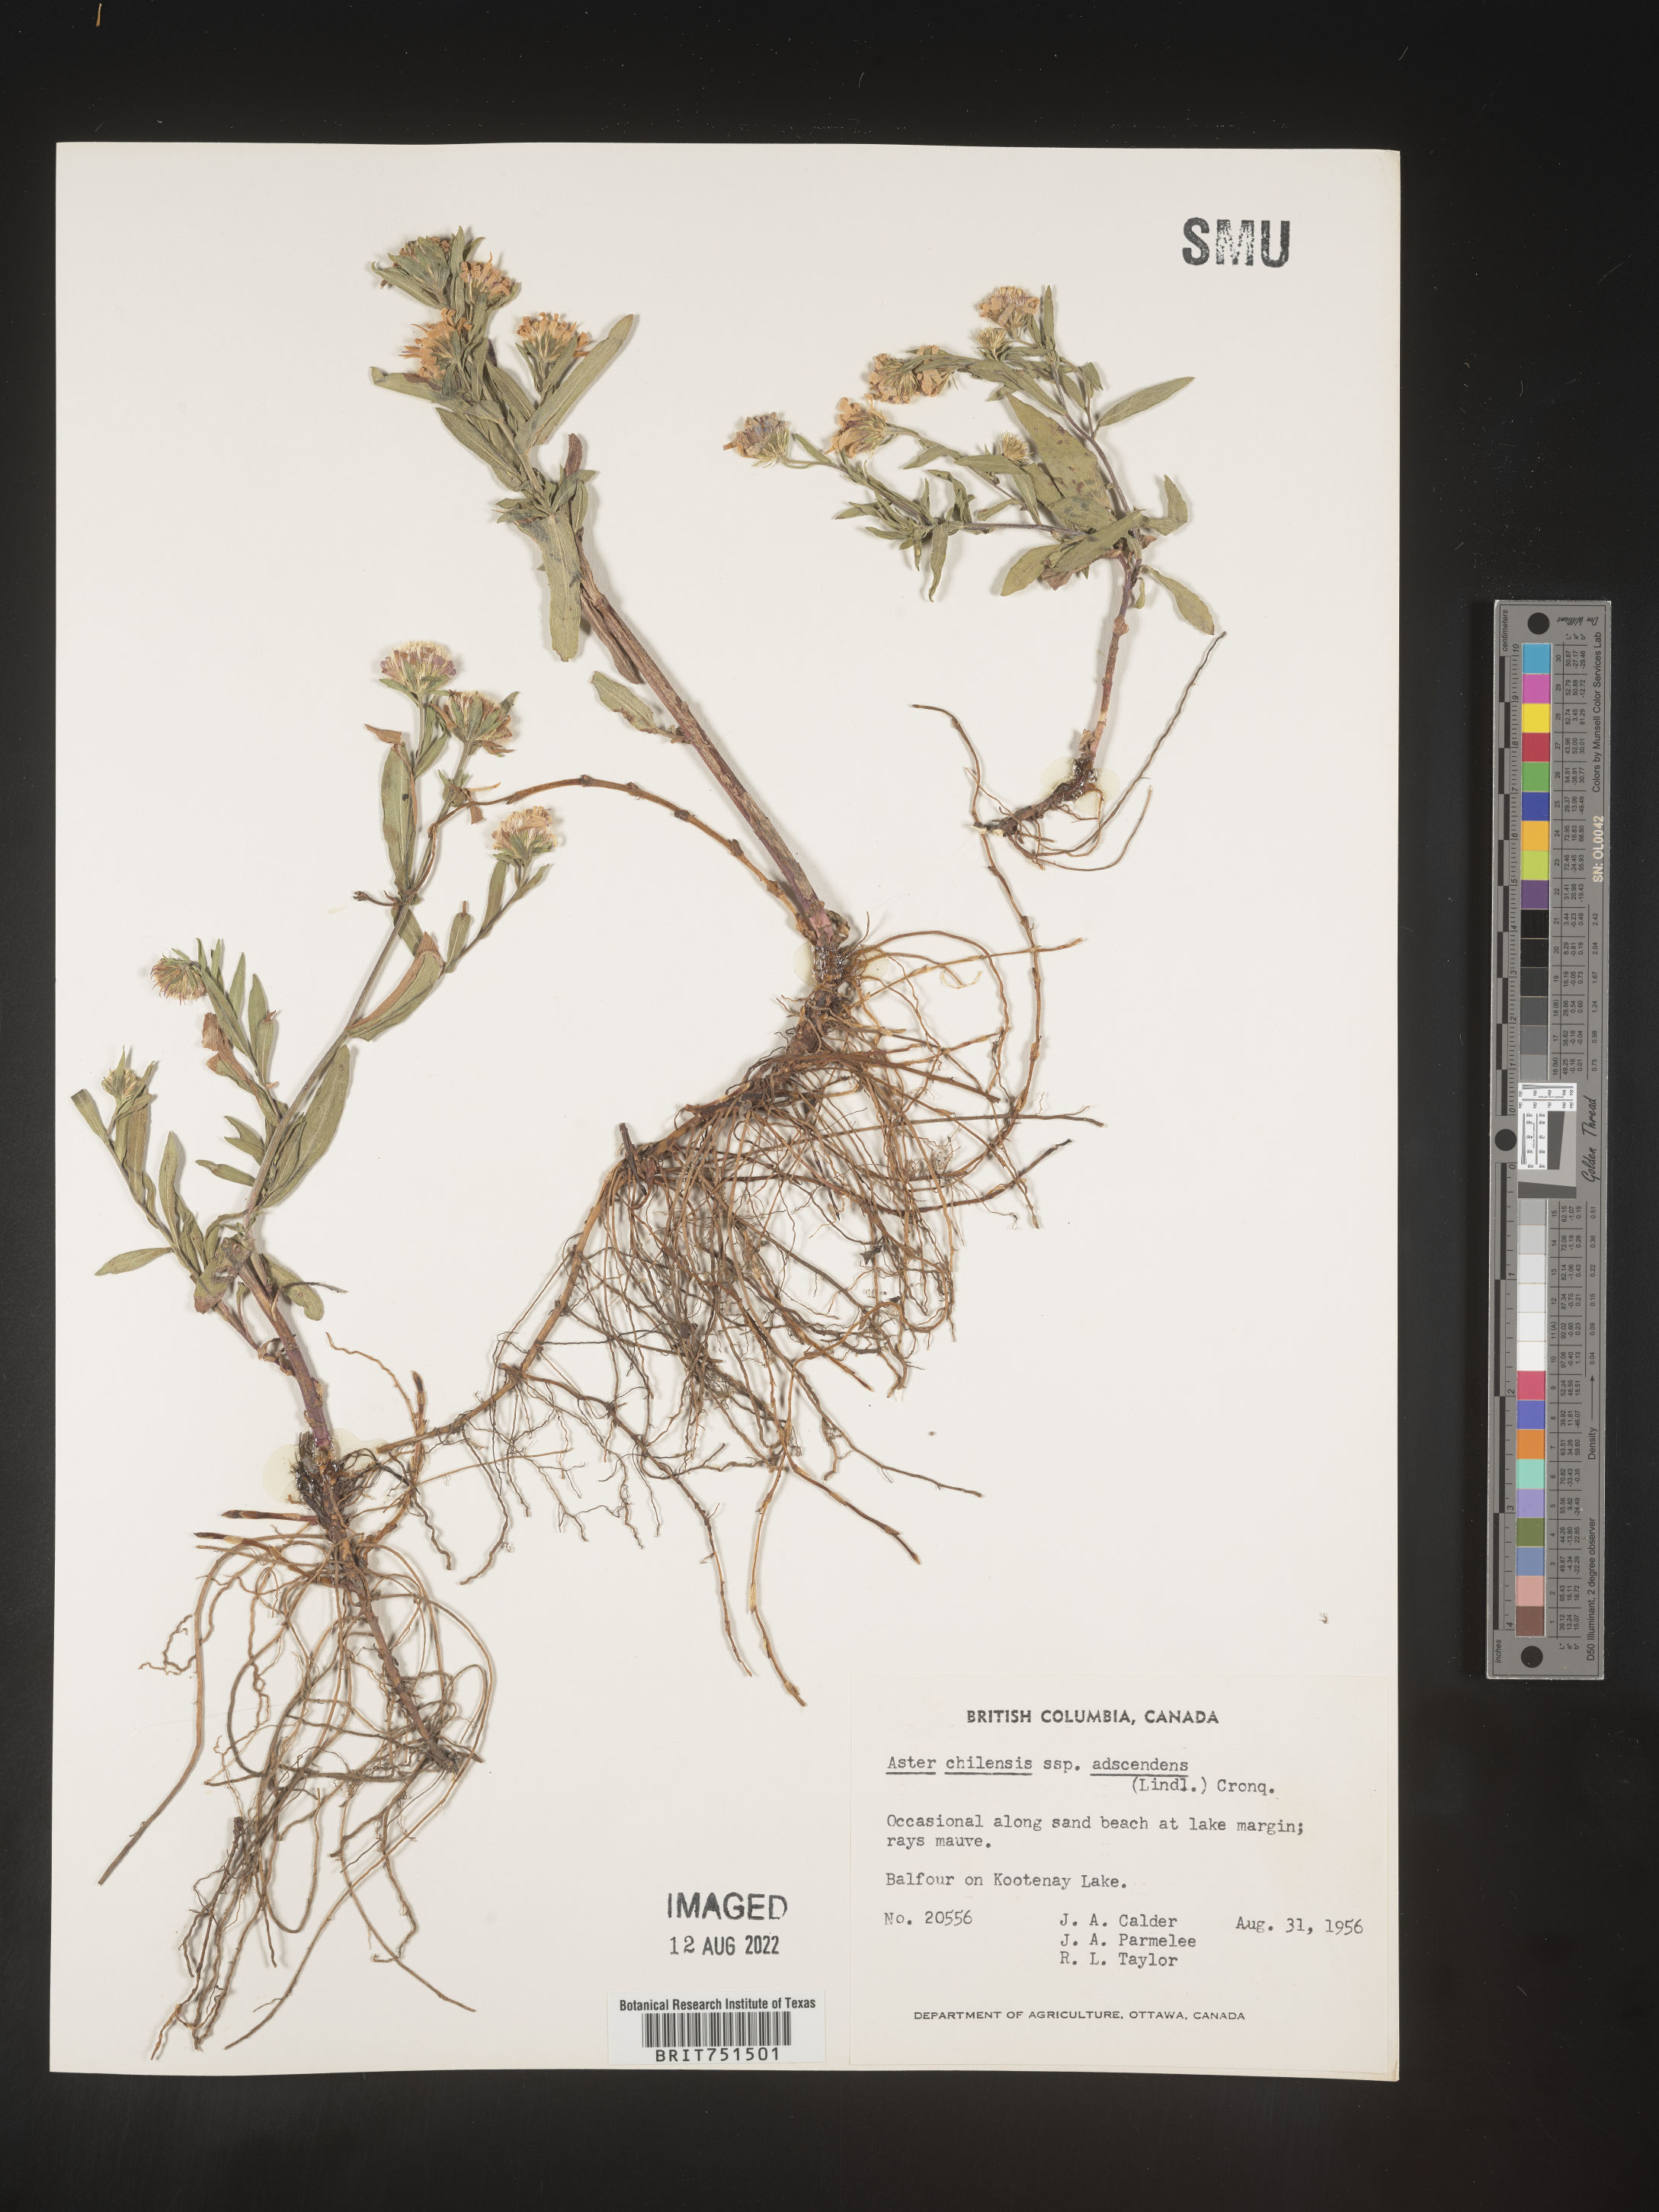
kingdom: Plantae
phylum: Tracheophyta
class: Magnoliopsida
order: Asterales
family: Asteraceae
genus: Symphyotrichum
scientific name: Symphyotrichum chilense
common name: Pacific aster
